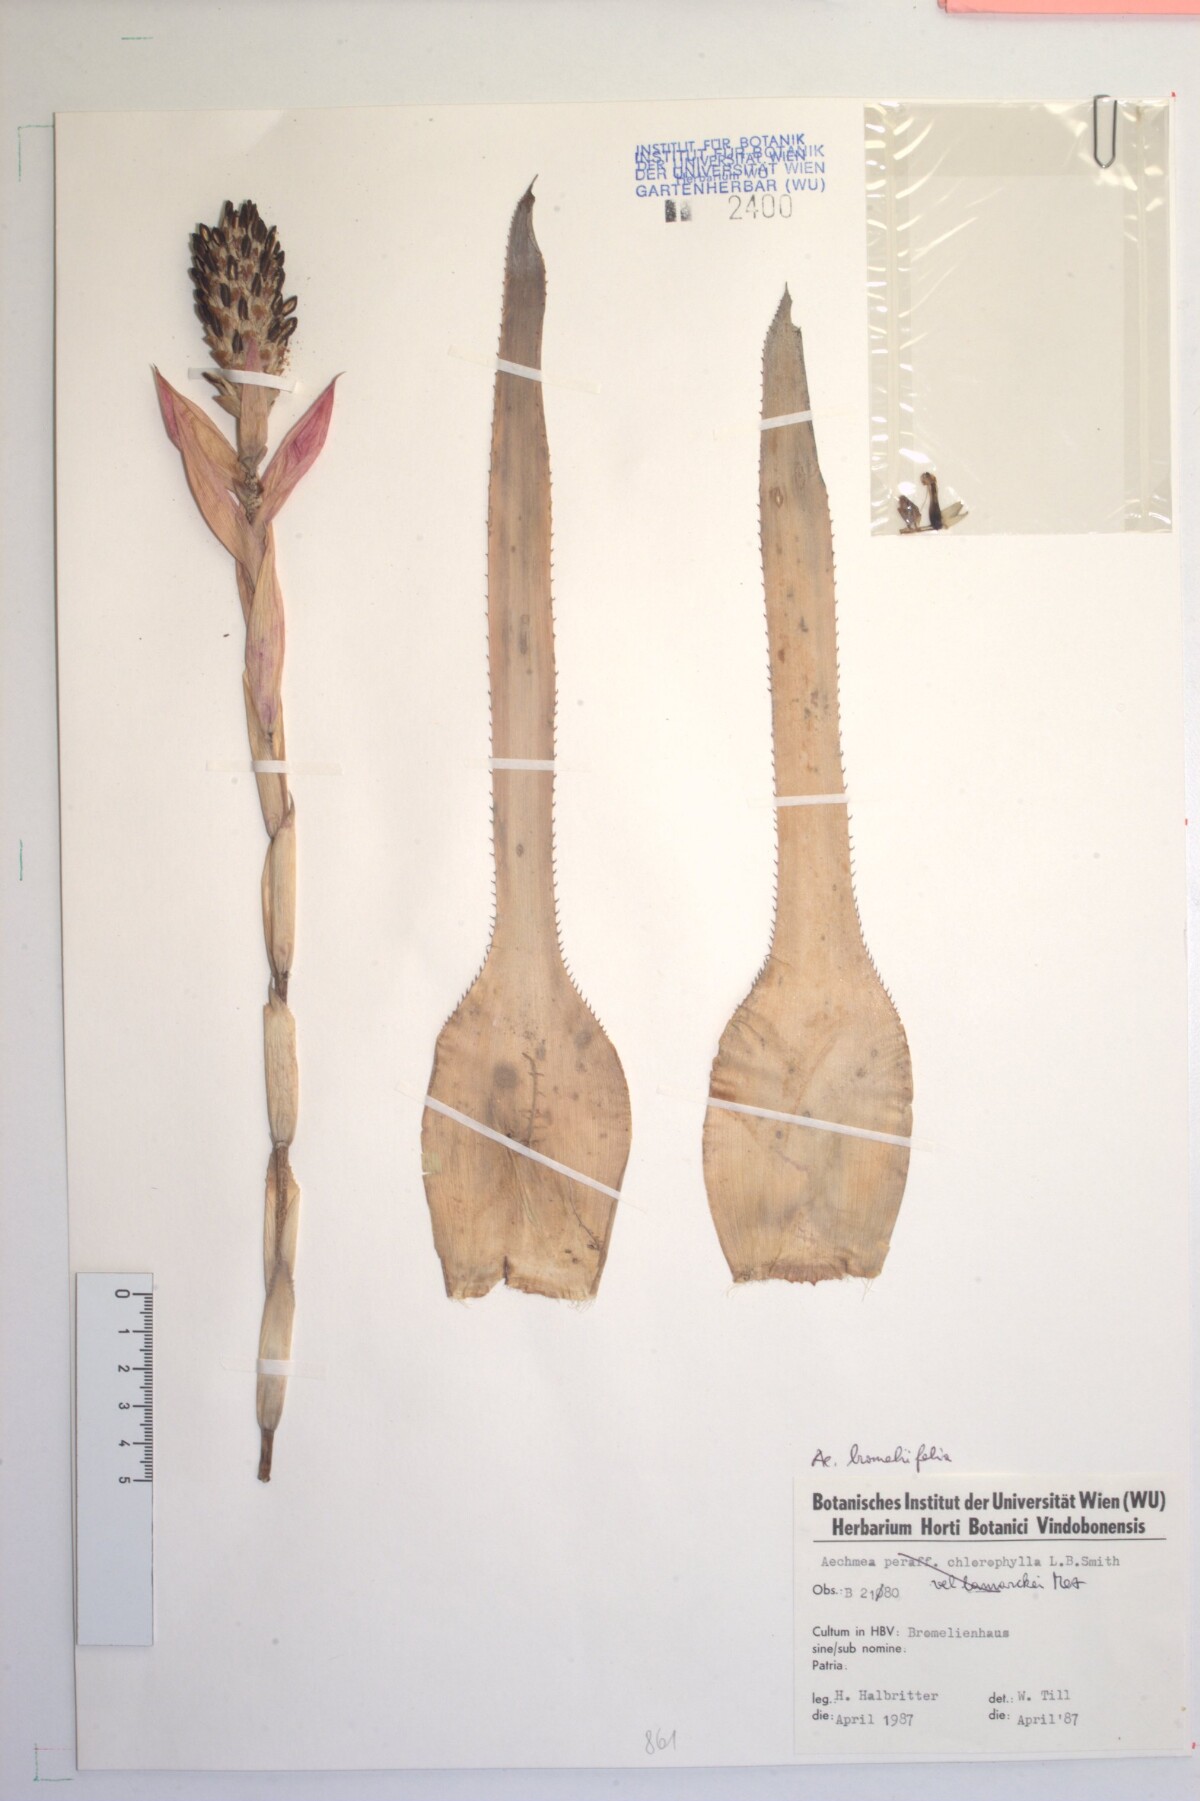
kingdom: Plantae
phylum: Tracheophyta
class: Liliopsida
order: Poales
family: Bromeliaceae
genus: Aechmea
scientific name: Aechmea bromeliifolia
